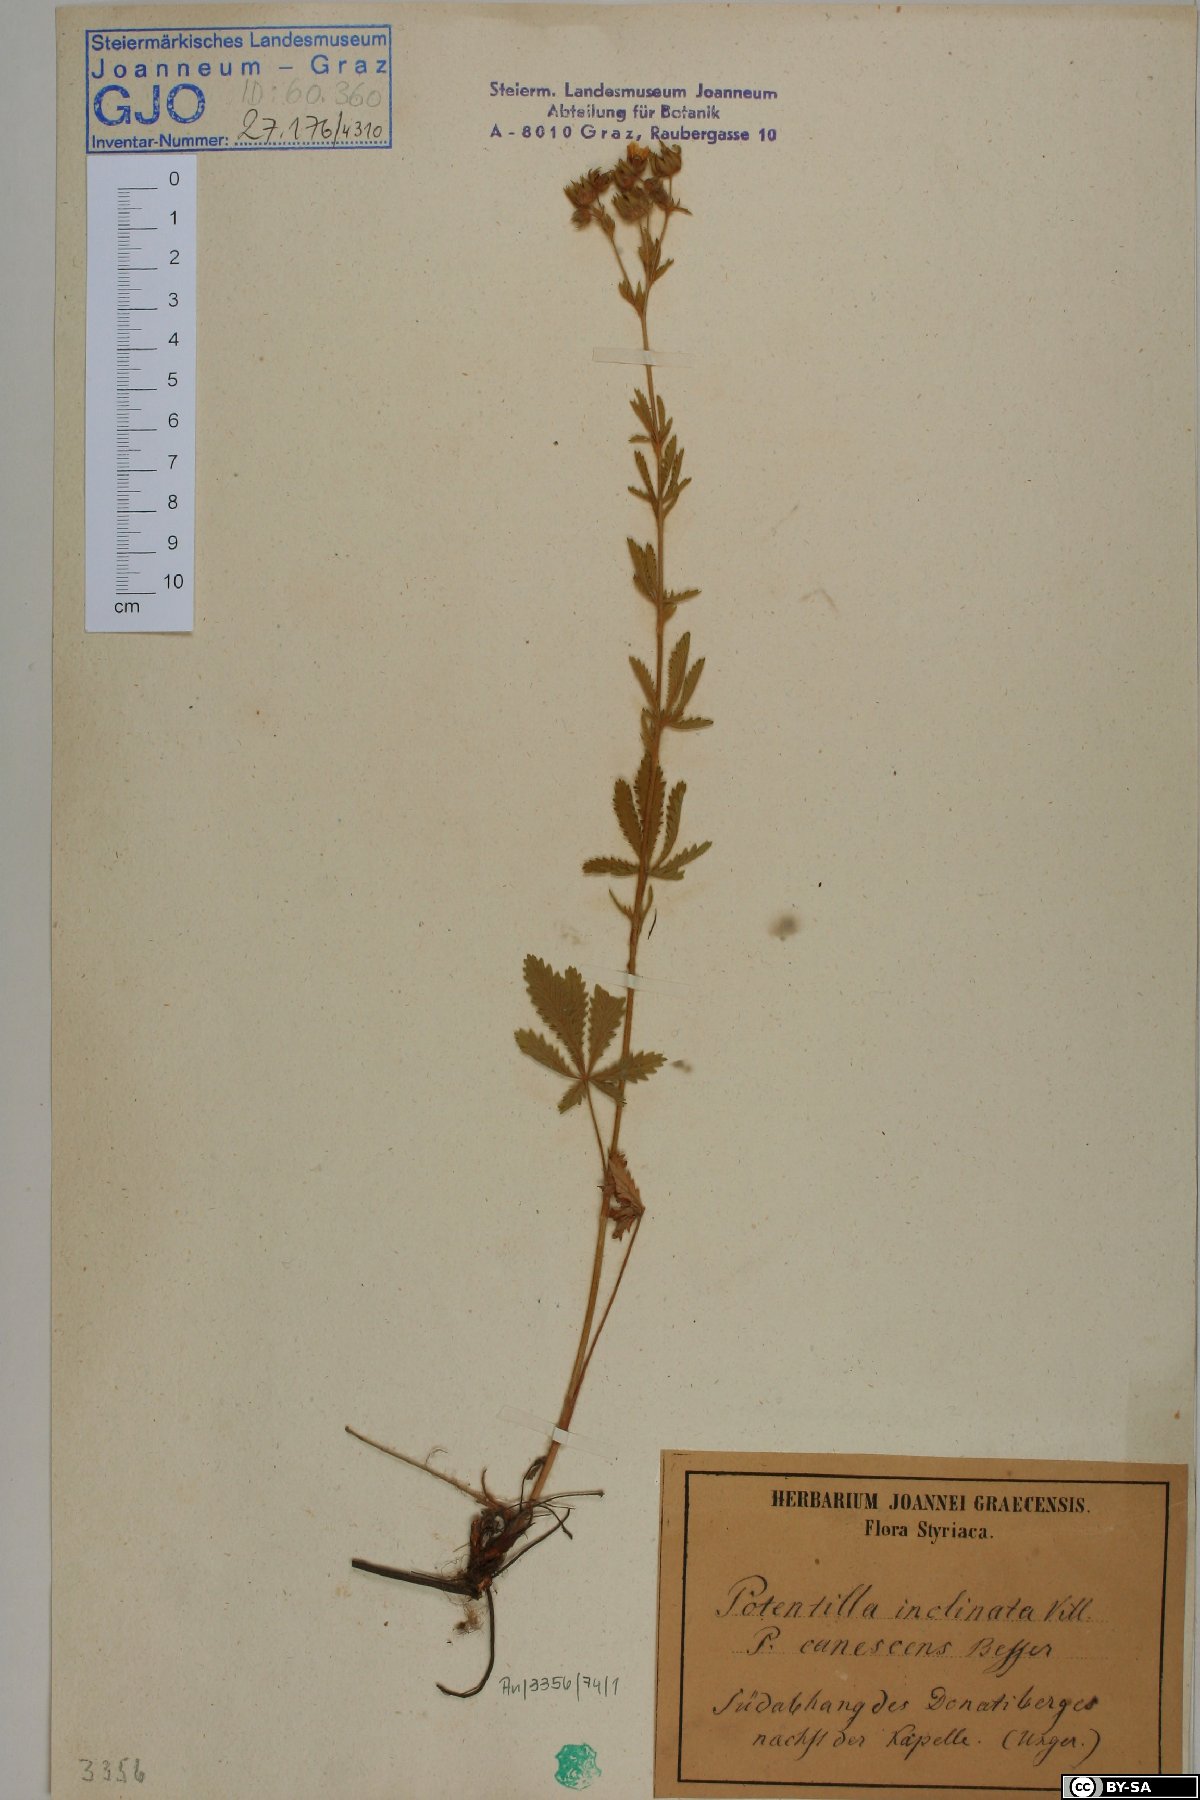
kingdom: Plantae
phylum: Tracheophyta
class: Magnoliopsida
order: Rosales
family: Rosaceae
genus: Potentilla
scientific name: Potentilla inclinata
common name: Grey cinquefoil
